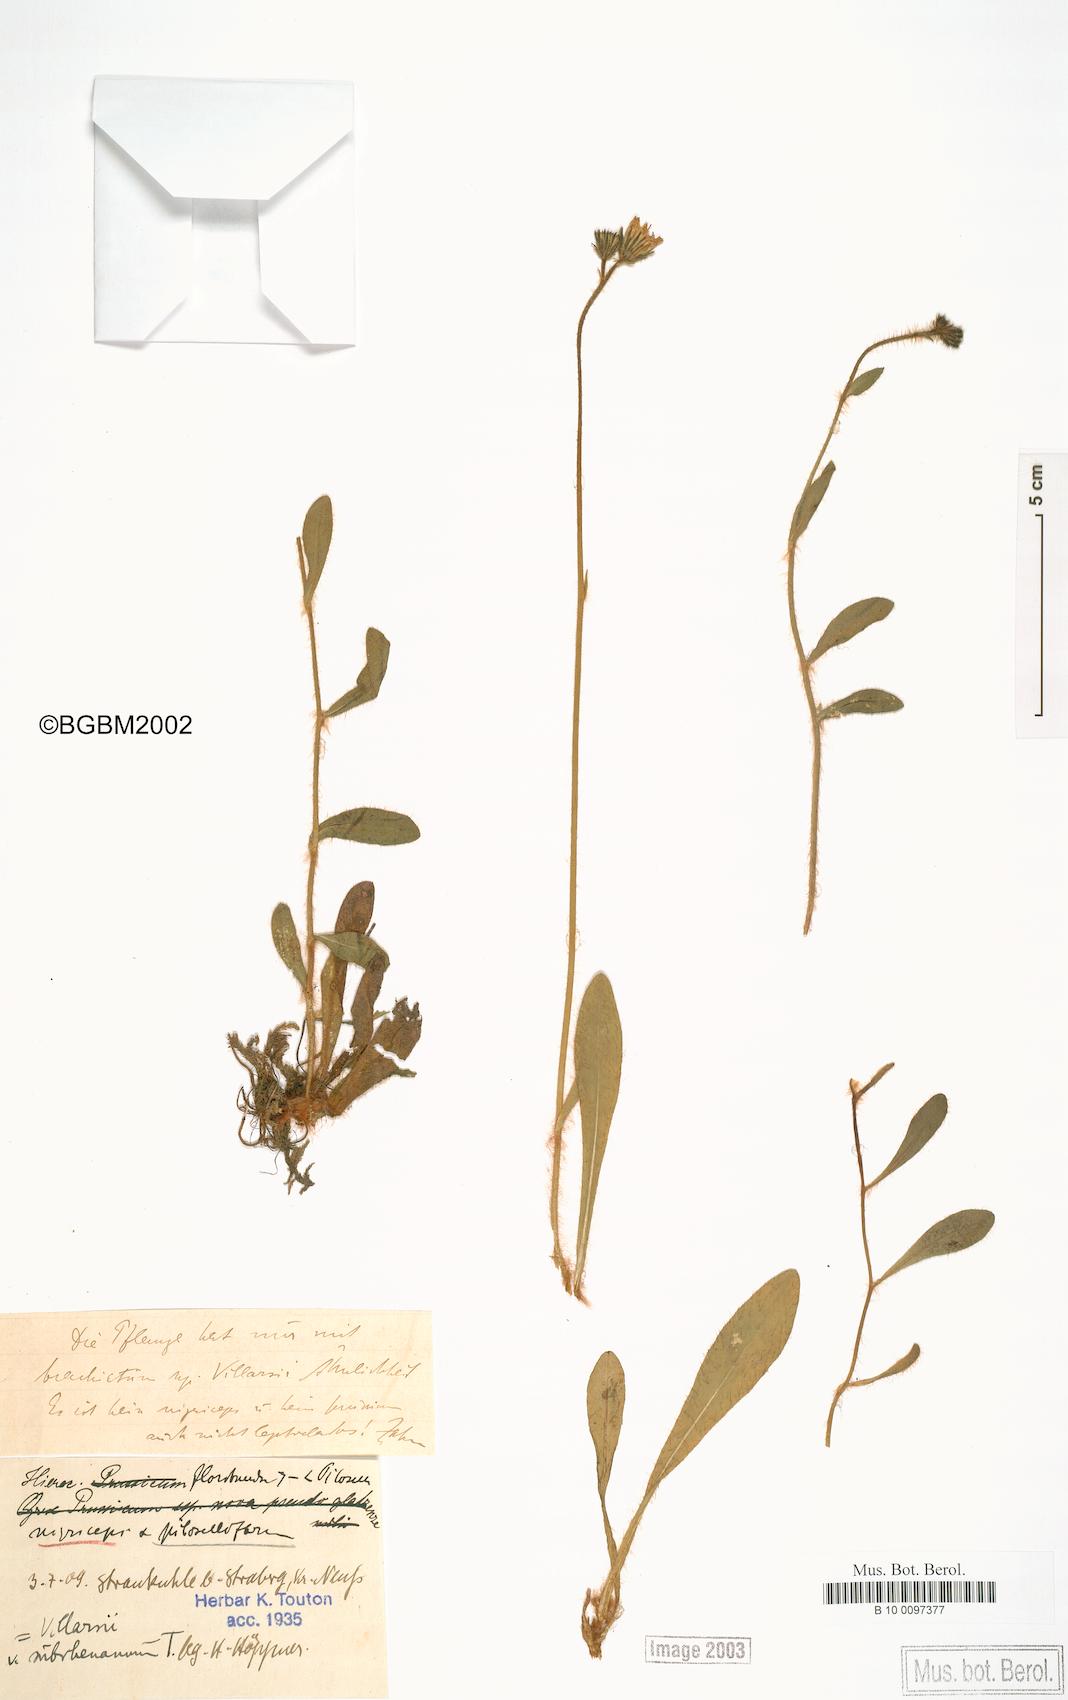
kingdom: Plantae
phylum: Tracheophyta
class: Magnoliopsida
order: Asterales
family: Asteraceae
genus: Pilosella
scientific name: Pilosella acutifolia
